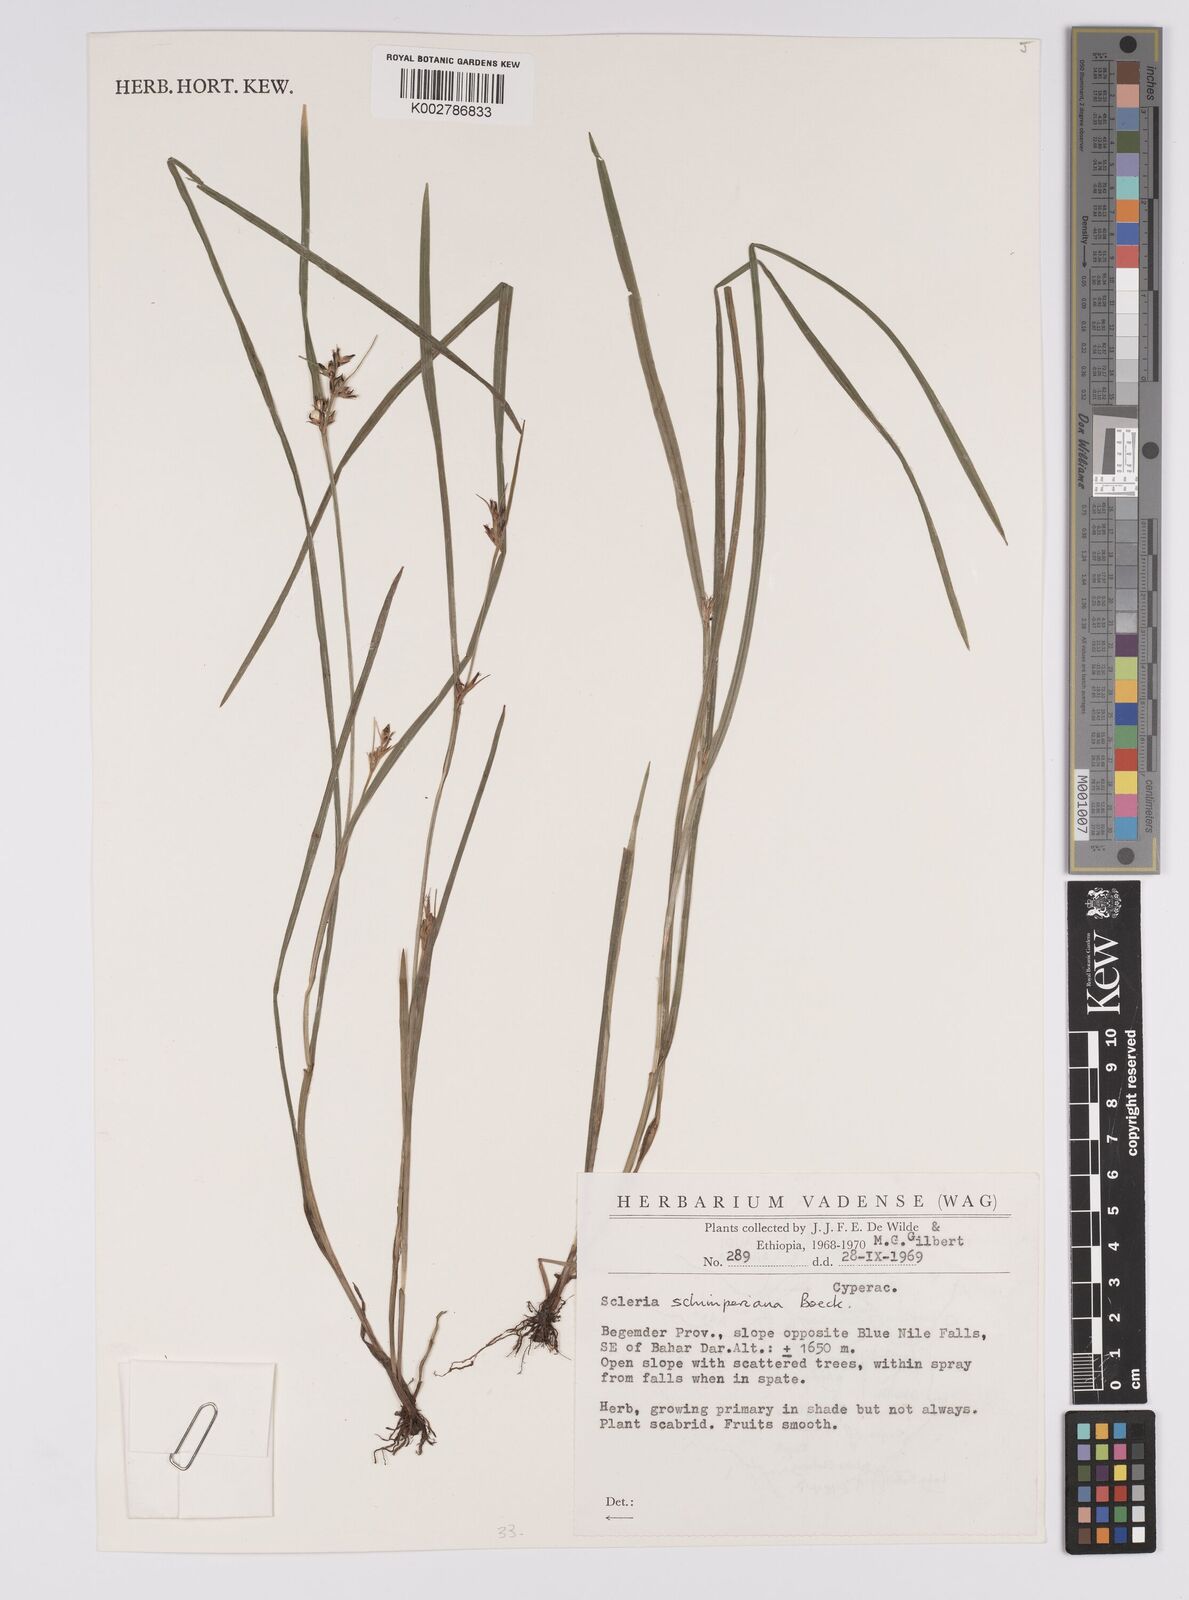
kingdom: Plantae
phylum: Tracheophyta
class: Liliopsida
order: Poales
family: Cyperaceae
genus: Scleria
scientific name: Scleria schimperiana
